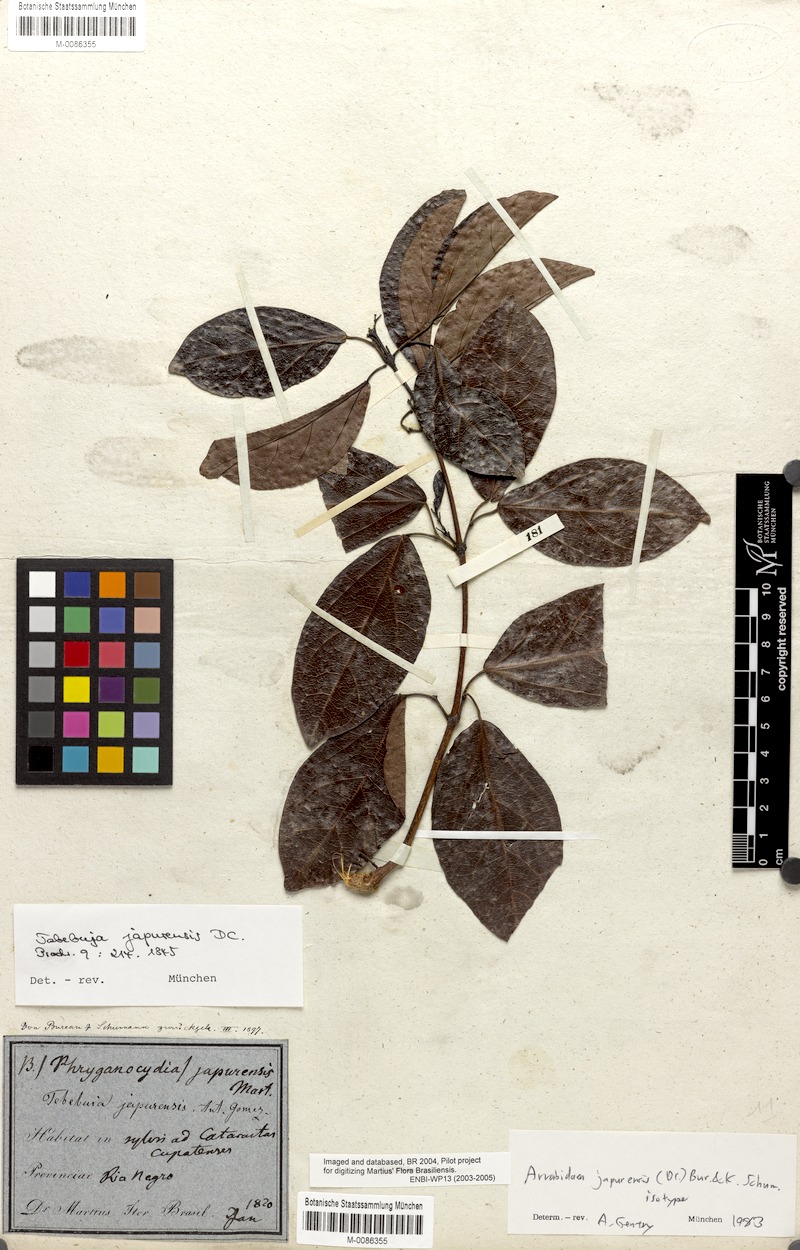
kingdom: Plantae
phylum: Tracheophyta
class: Magnoliopsida
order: Lamiales
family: Bignoniaceae
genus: Fridericia
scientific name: Fridericia japurensis
